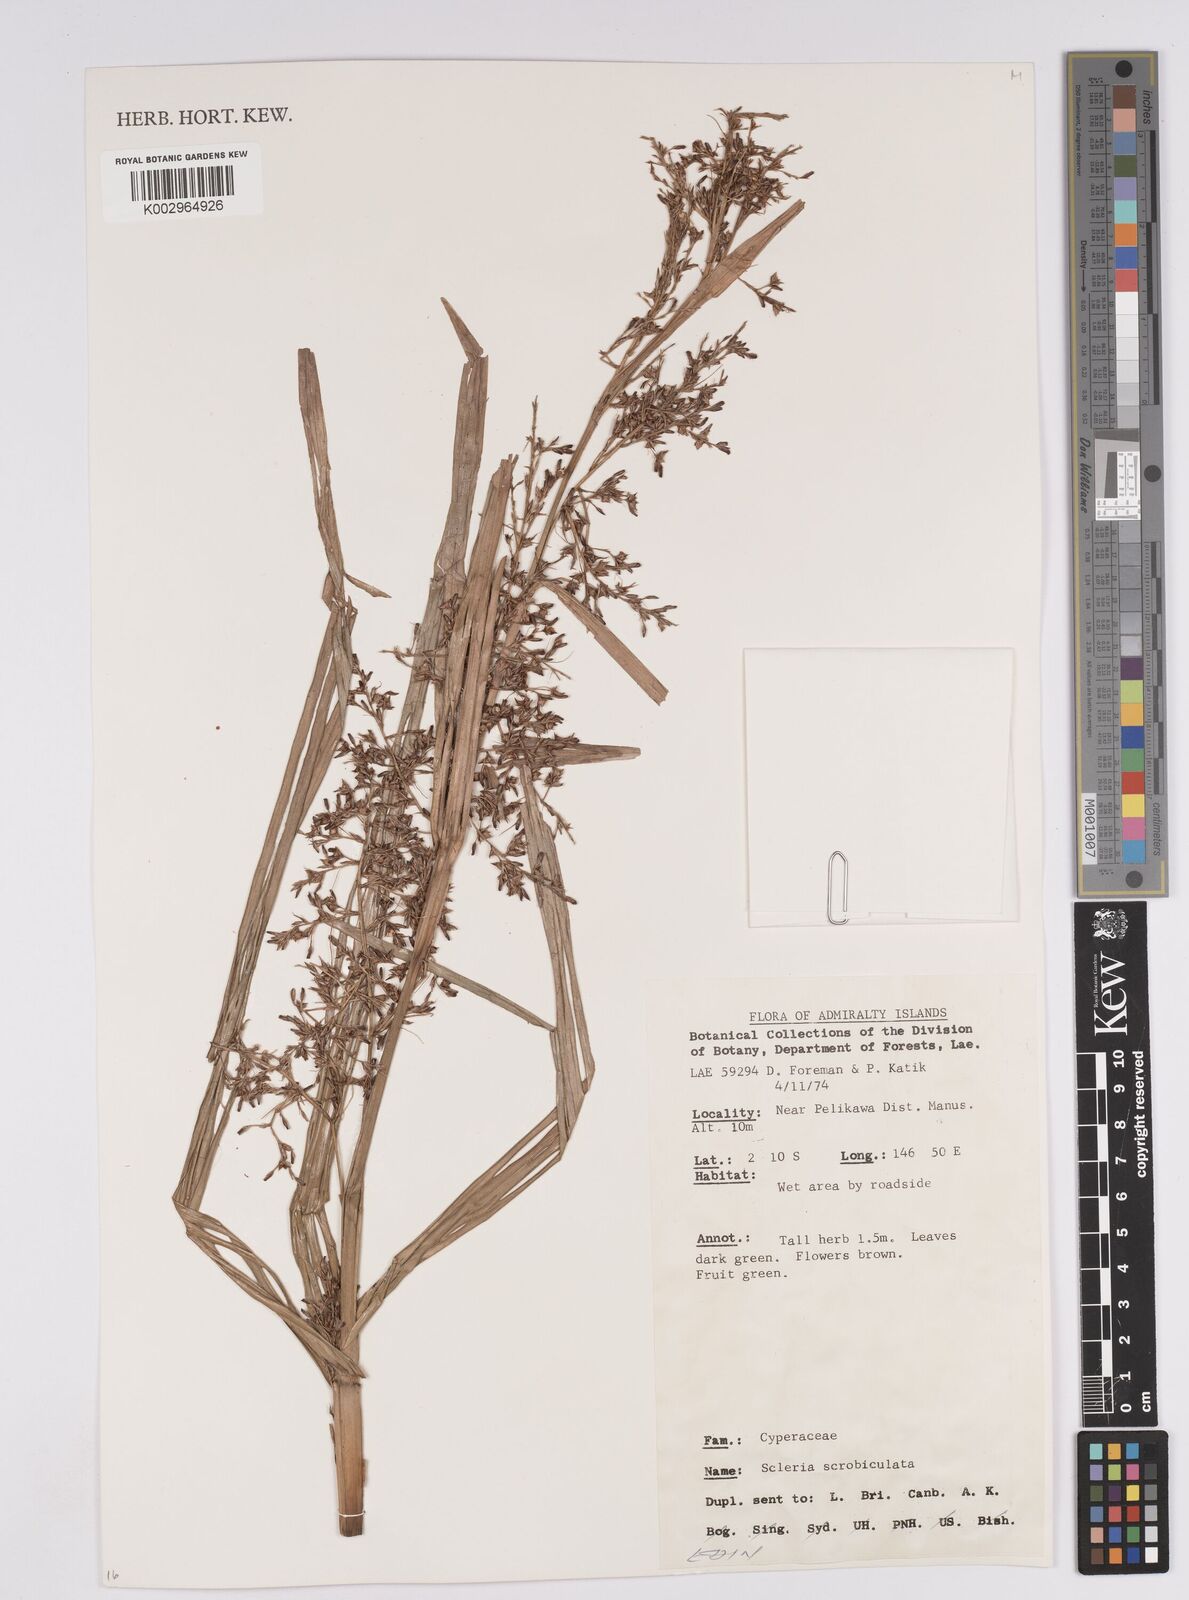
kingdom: Plantae
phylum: Tracheophyta
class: Liliopsida
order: Poales
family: Cyperaceae
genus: Scleria
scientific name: Scleria scrobiculata
